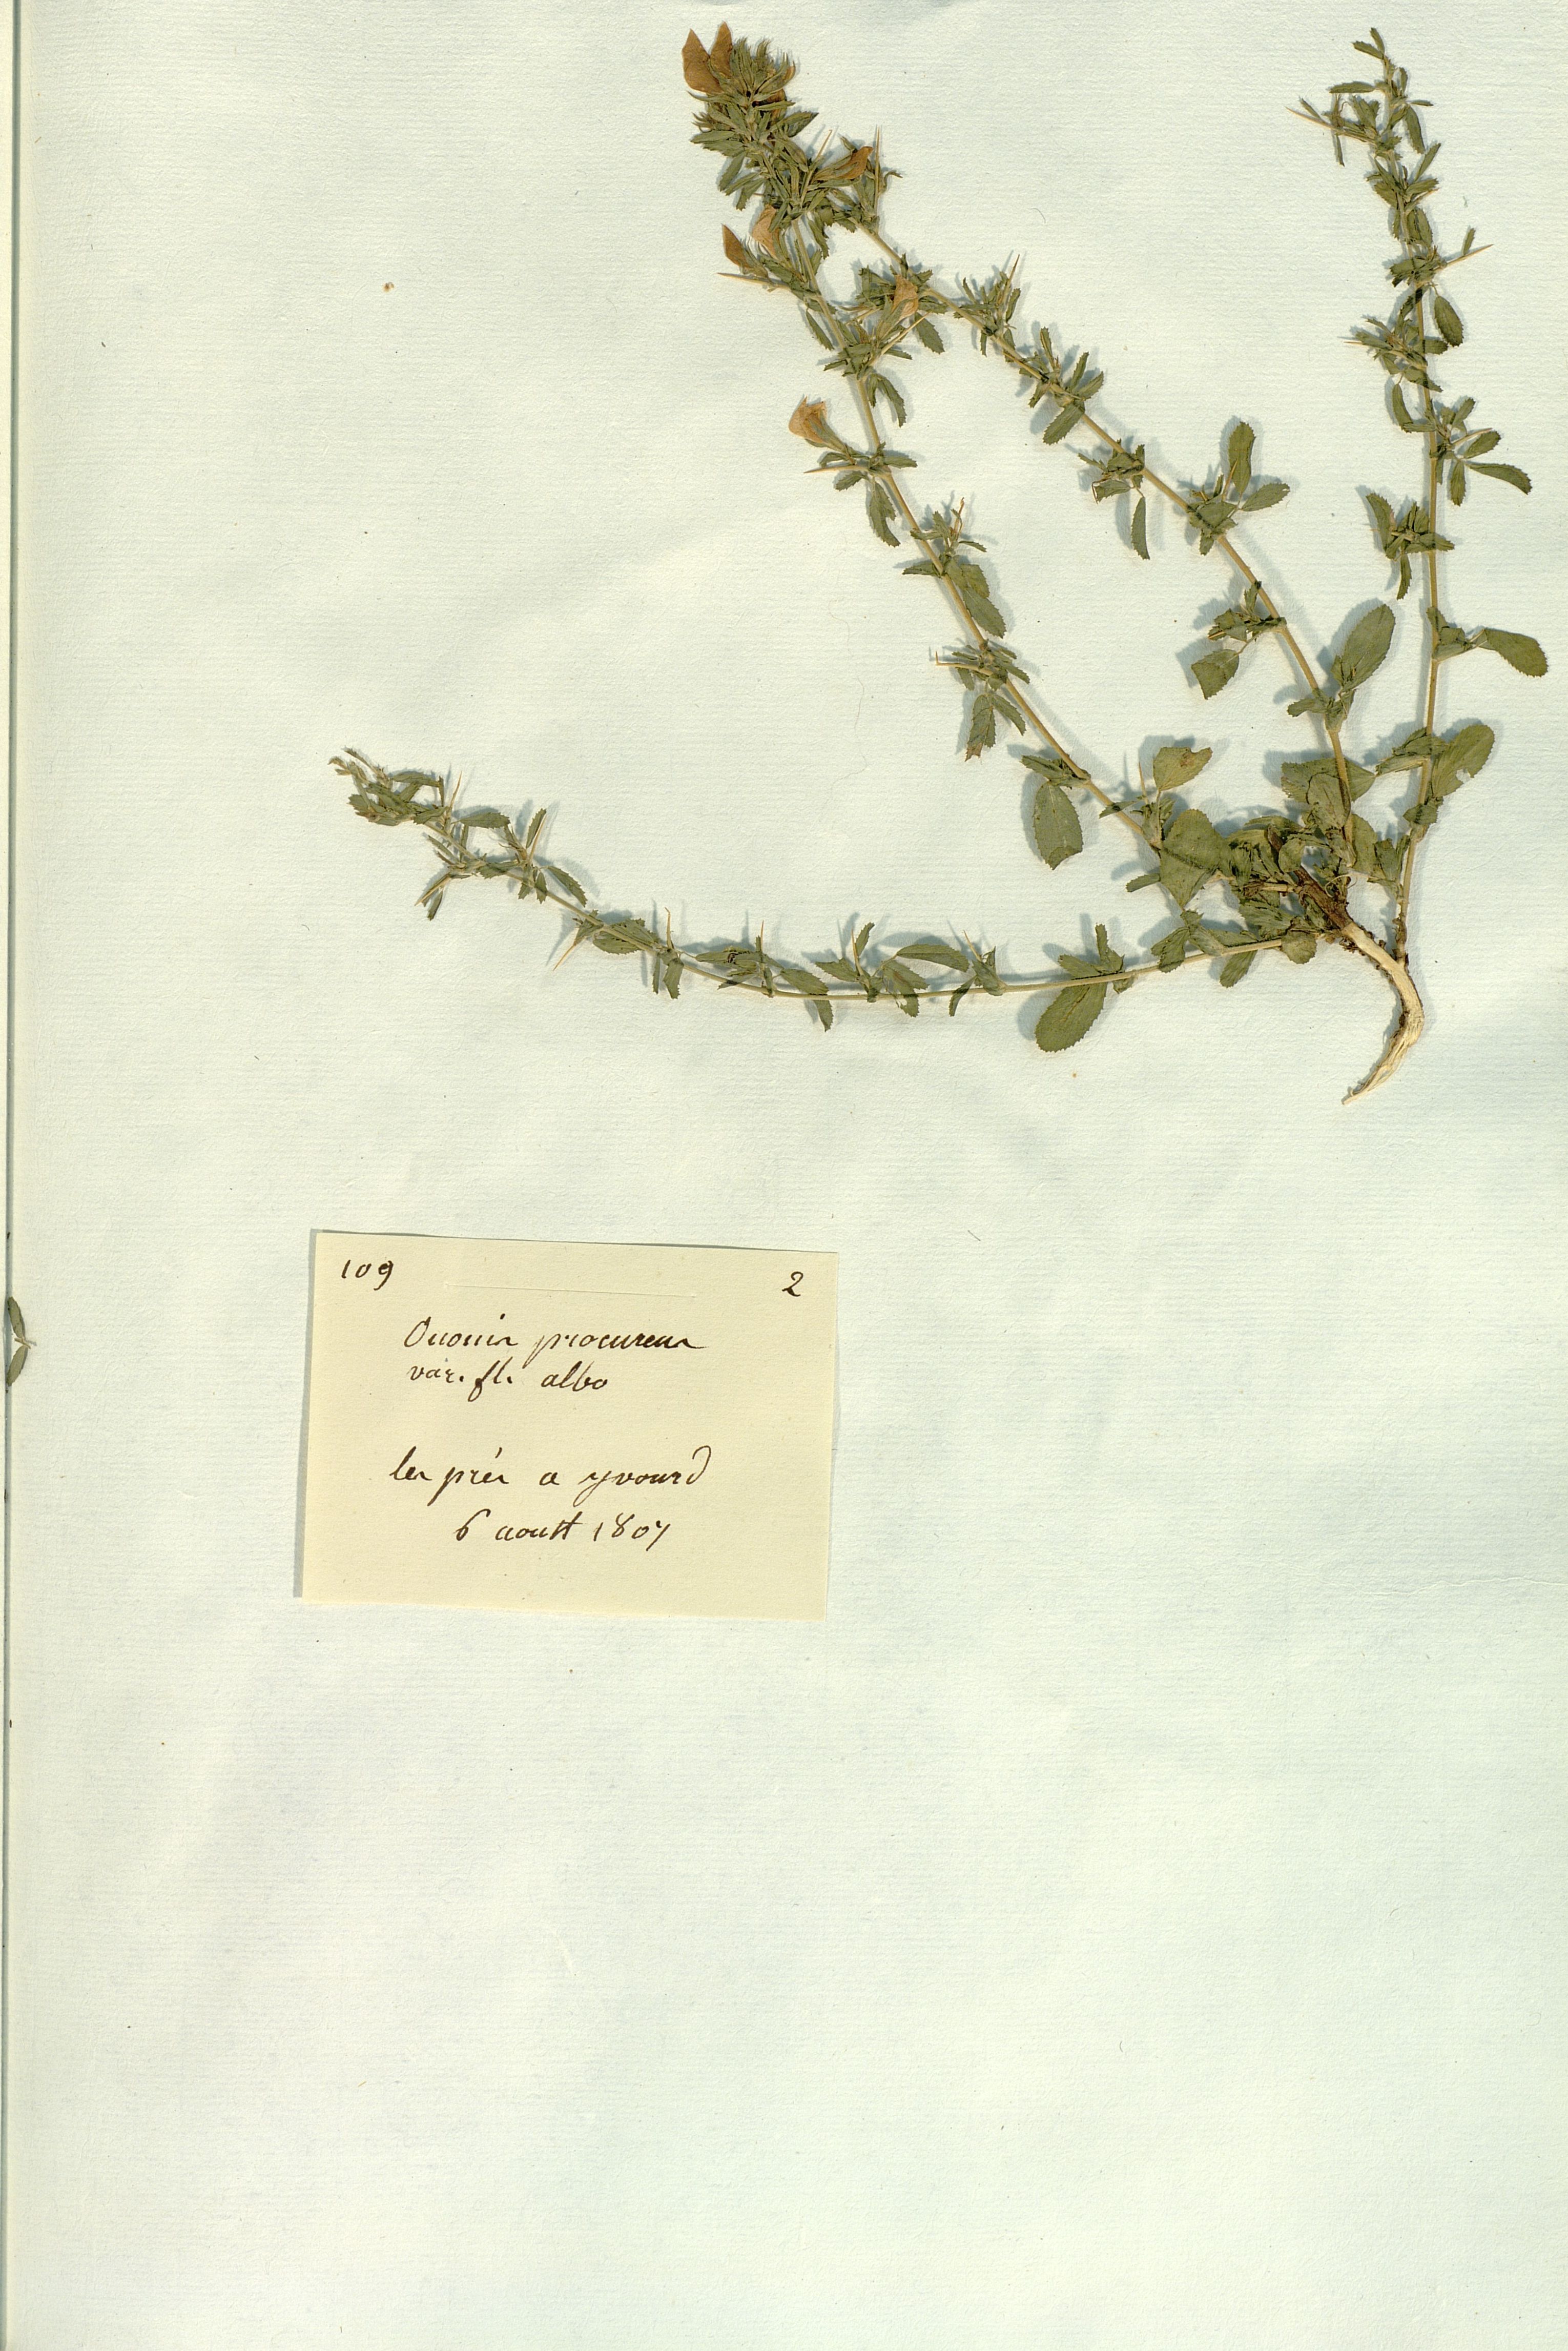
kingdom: Plantae
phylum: Tracheophyta
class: Magnoliopsida
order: Fabales
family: Fabaceae
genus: Ononis
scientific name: Ononis
